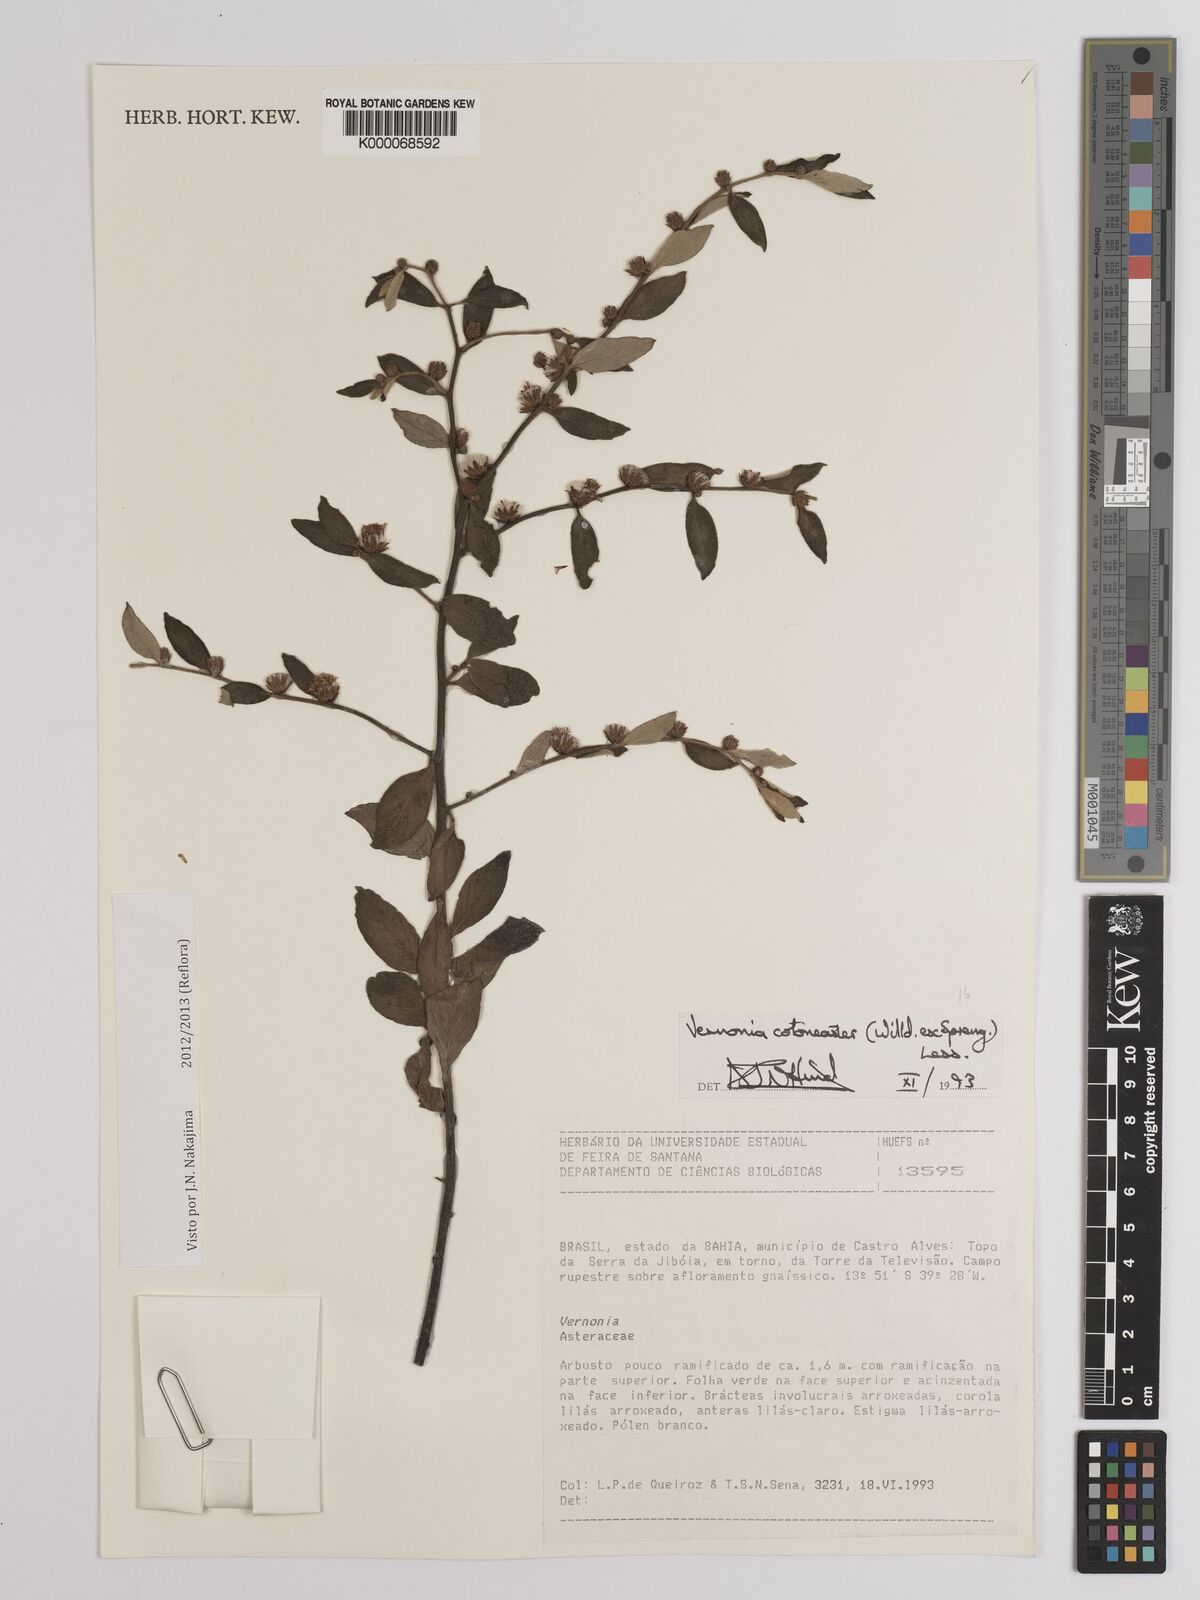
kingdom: Plantae
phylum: Tracheophyta
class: Magnoliopsida
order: Asterales
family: Asteraceae
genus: Lepidaploa
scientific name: Lepidaploa cotoneaster
